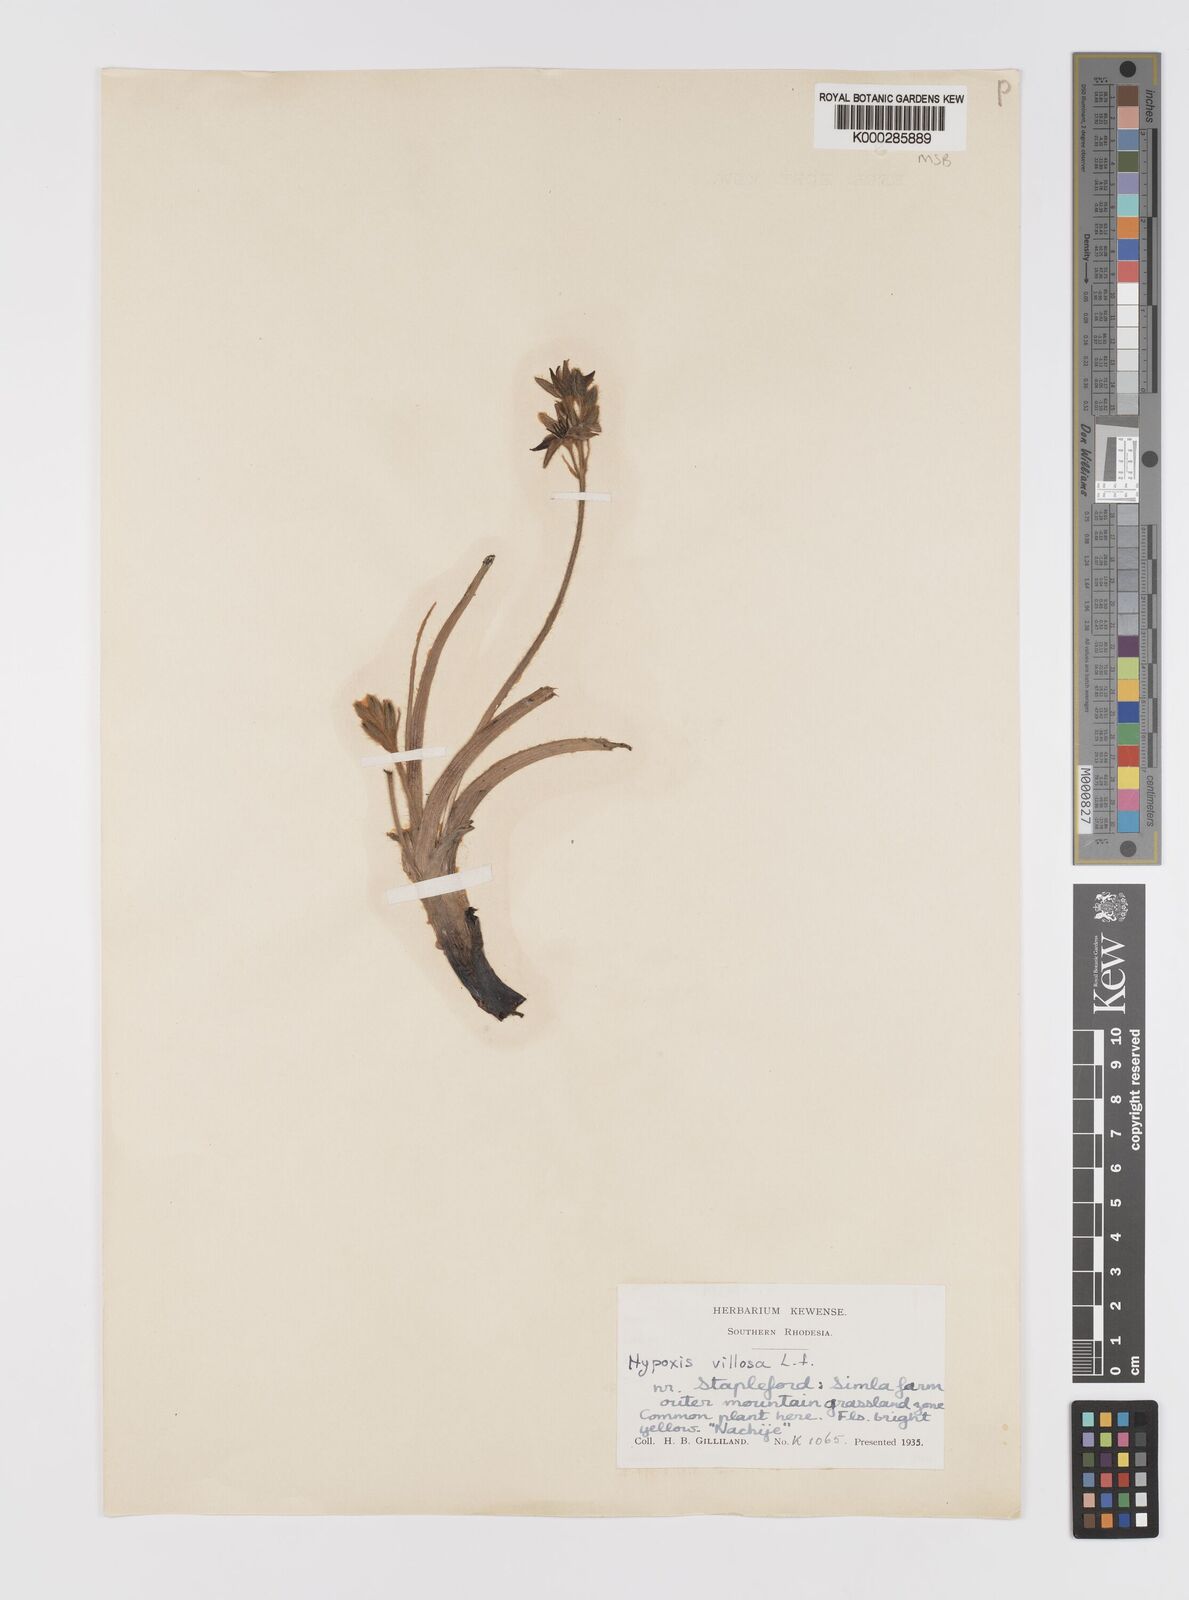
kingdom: Plantae
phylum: Tracheophyta
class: Liliopsida
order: Asparagales
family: Hypoxidaceae
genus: Hypoxis
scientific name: Hypoxis
